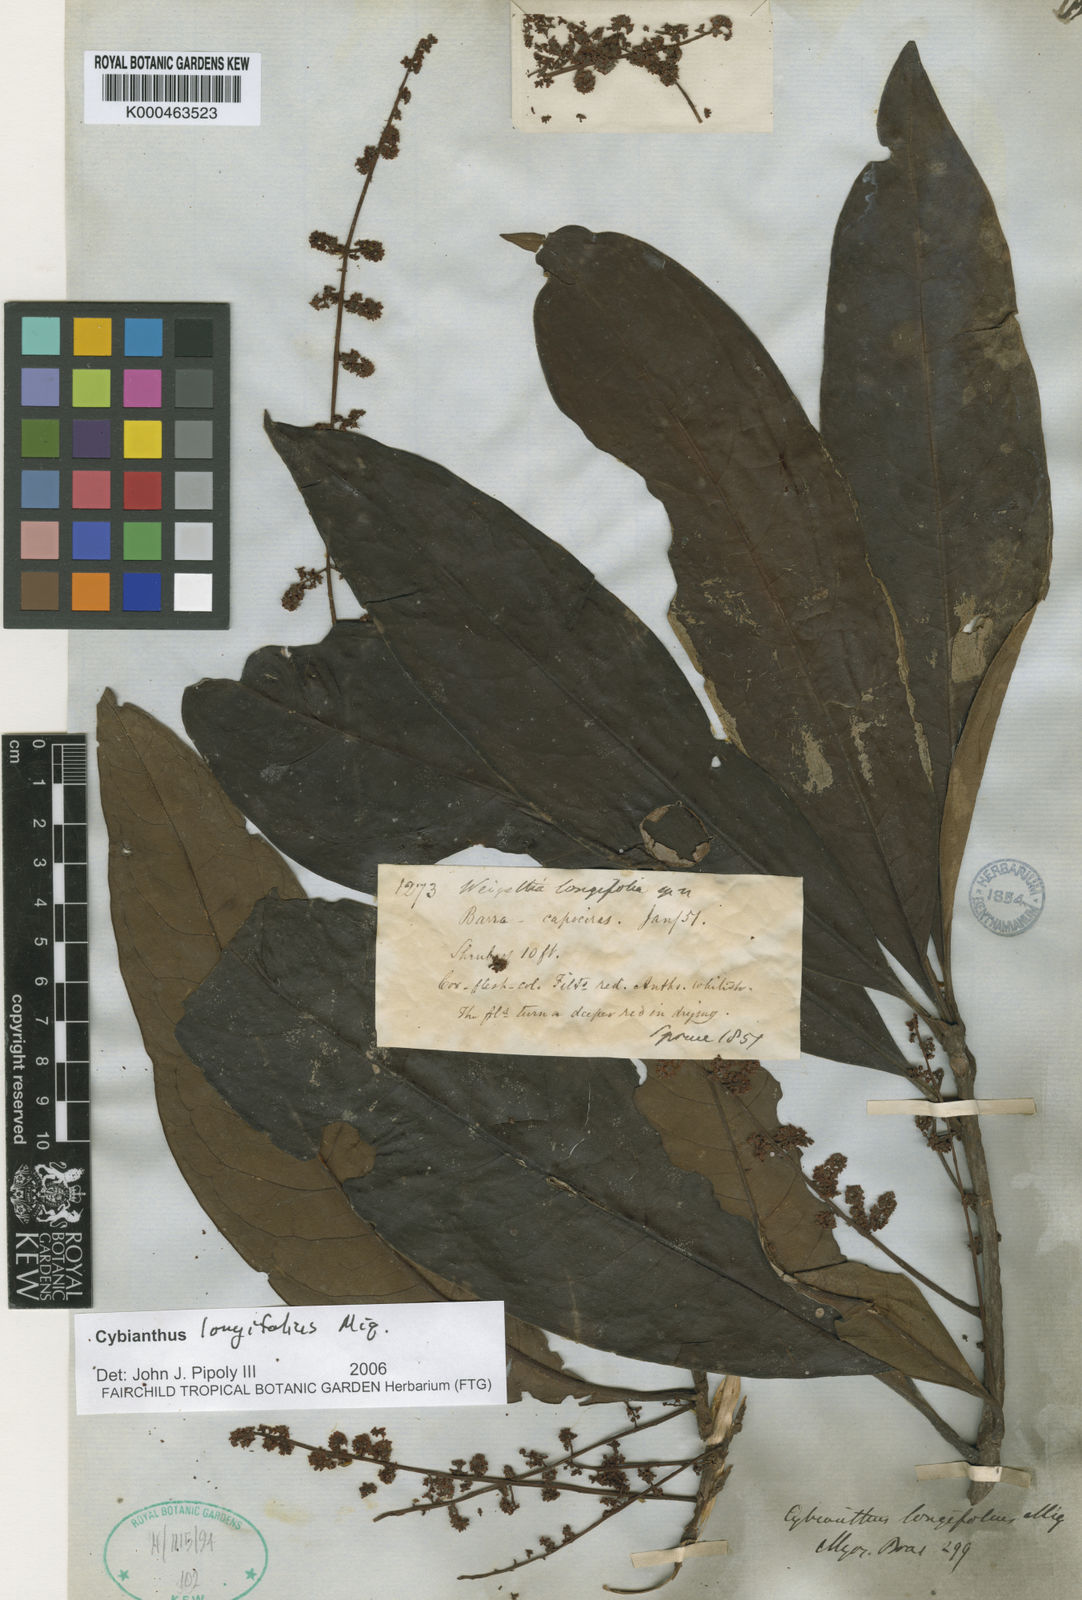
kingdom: Plantae
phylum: Tracheophyta
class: Magnoliopsida
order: Ericales
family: Primulaceae
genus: Cybianthus
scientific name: Cybianthus longifolius
